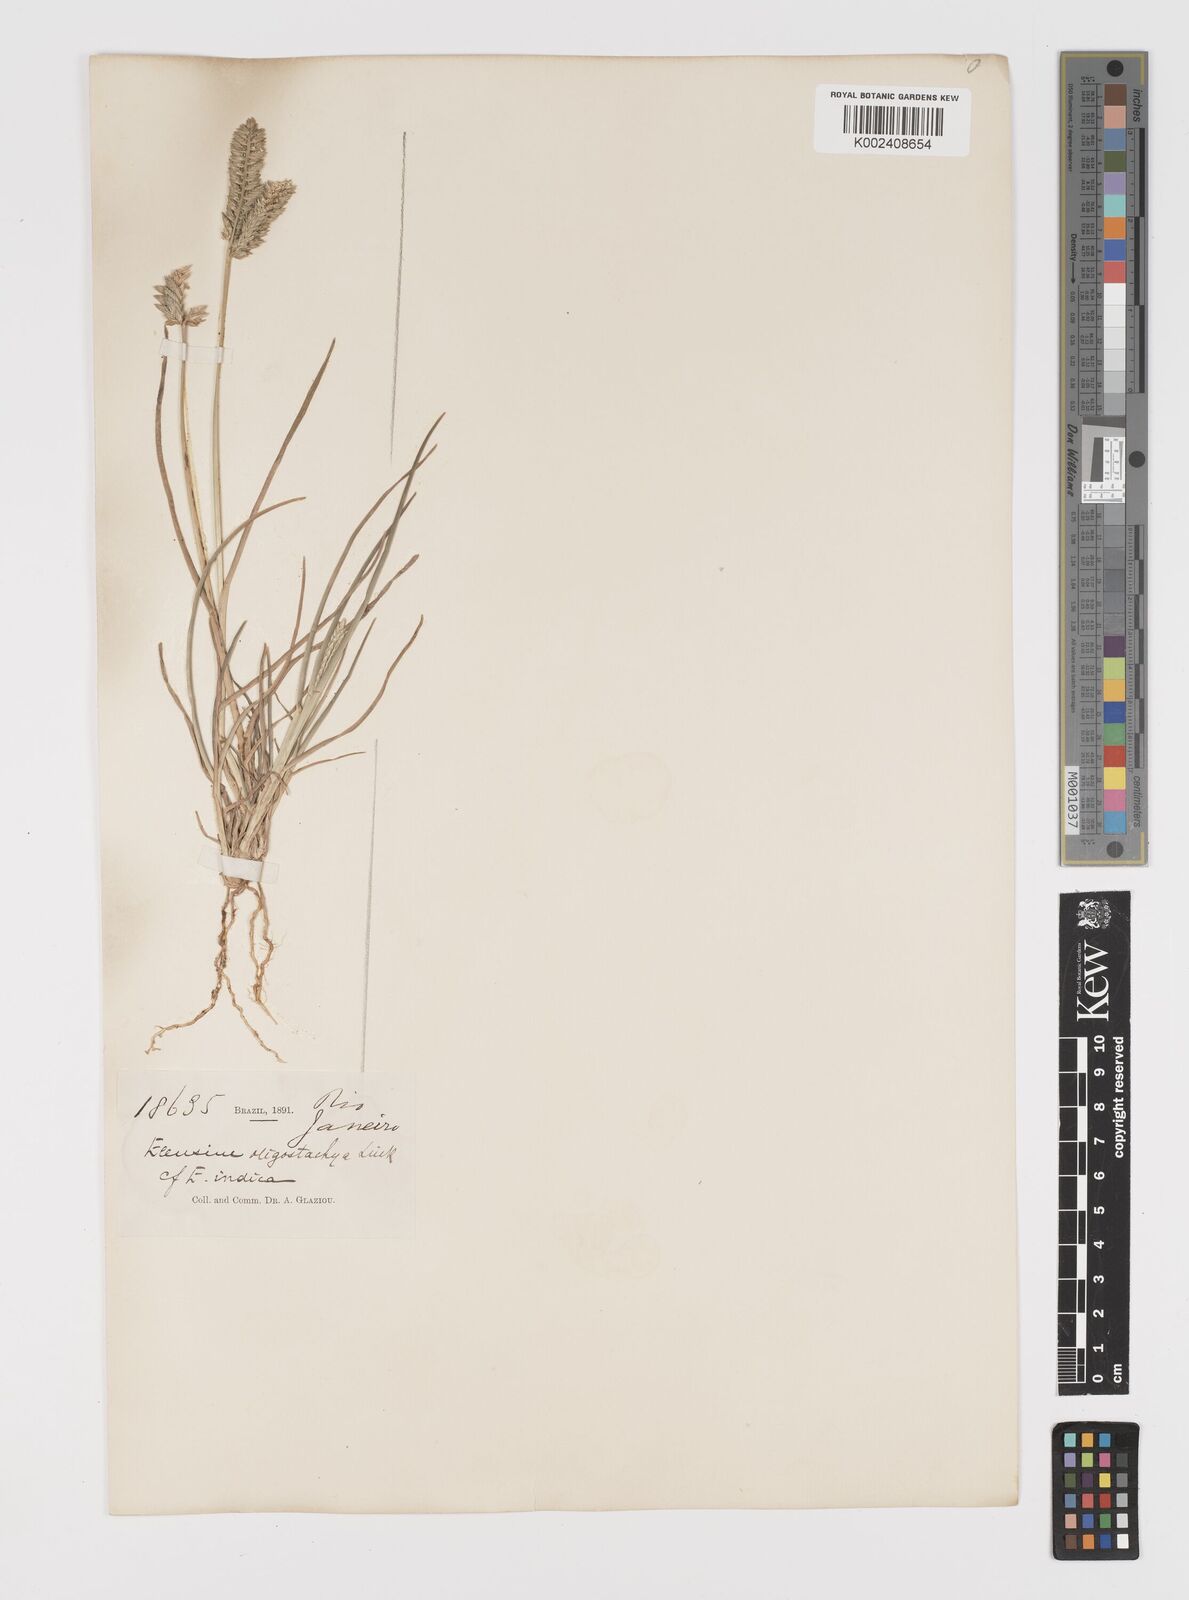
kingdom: Plantae
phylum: Tracheophyta
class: Liliopsida
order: Poales
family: Poaceae
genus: Eleusine
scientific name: Eleusine tristachya
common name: American yard-grass
